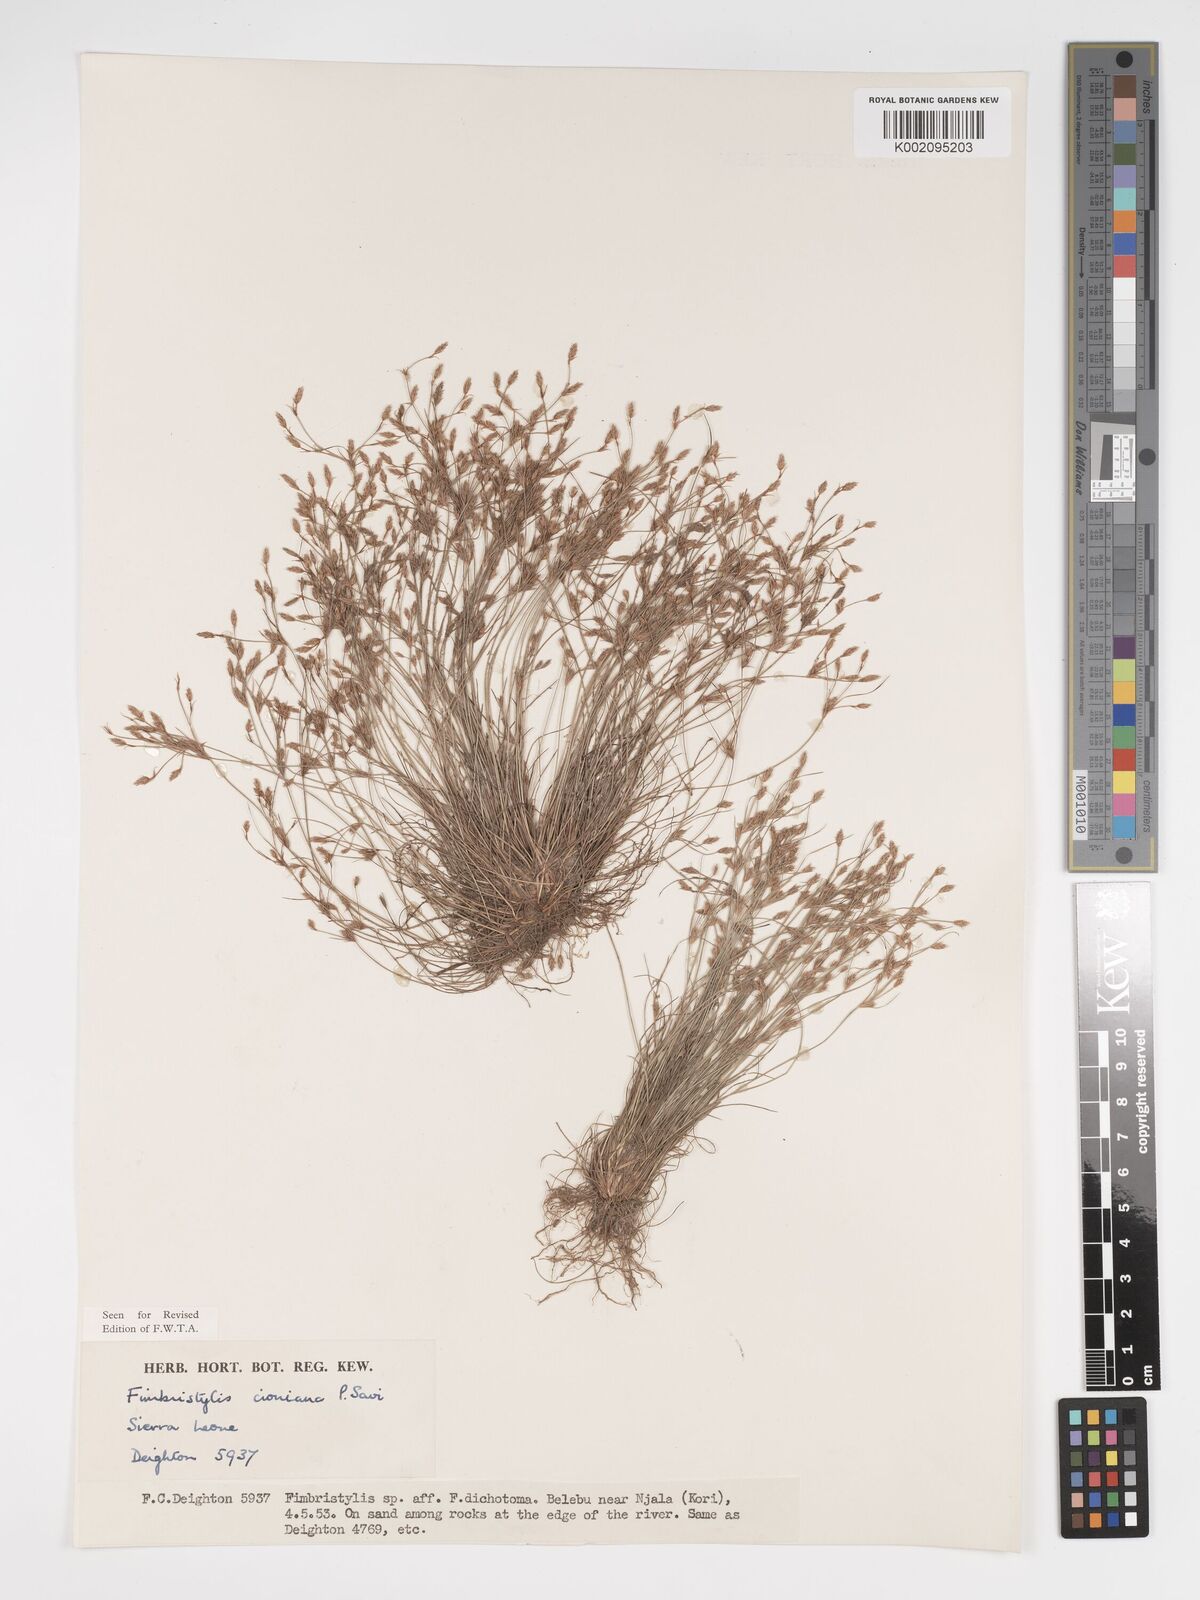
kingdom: Plantae
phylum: Tracheophyta
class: Liliopsida
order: Poales
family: Cyperaceae
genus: Bulbostylis
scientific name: Bulbostylis cioniana
